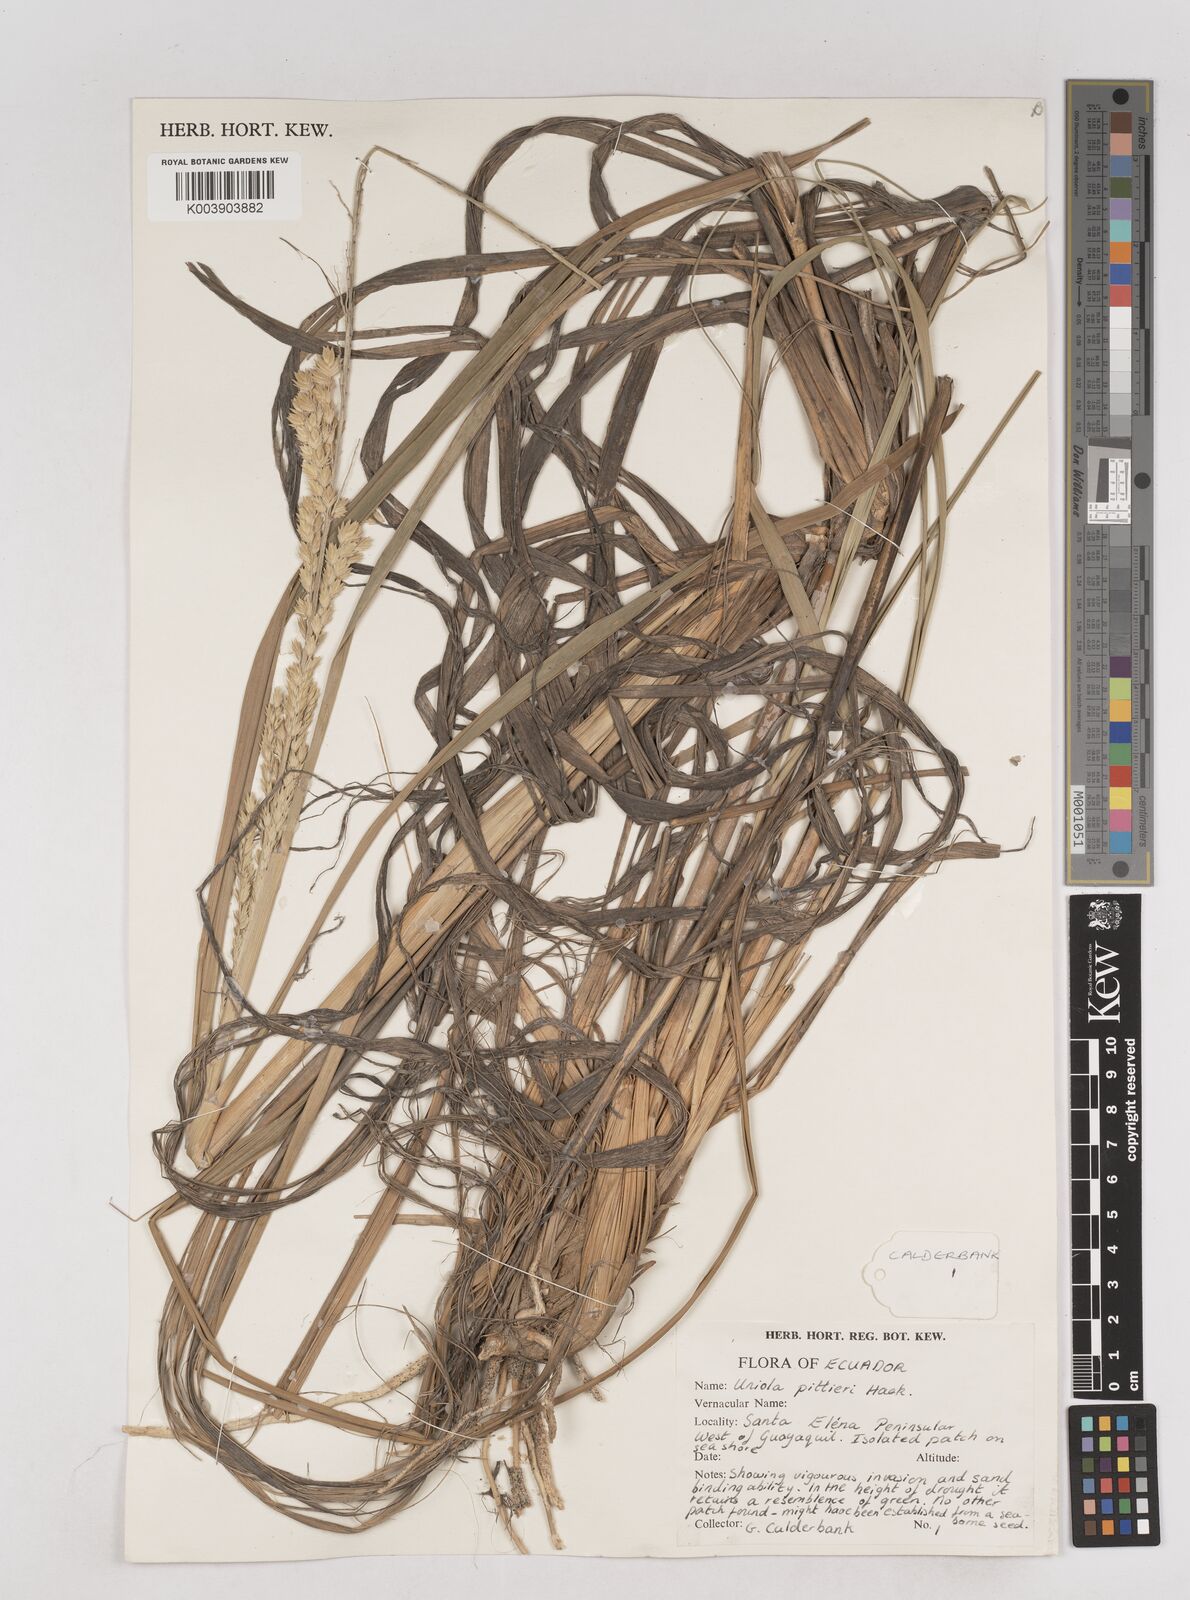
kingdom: Plantae
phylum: Tracheophyta
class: Liliopsida
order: Poales
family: Poaceae
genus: Uniola
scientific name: Uniola pittieri
